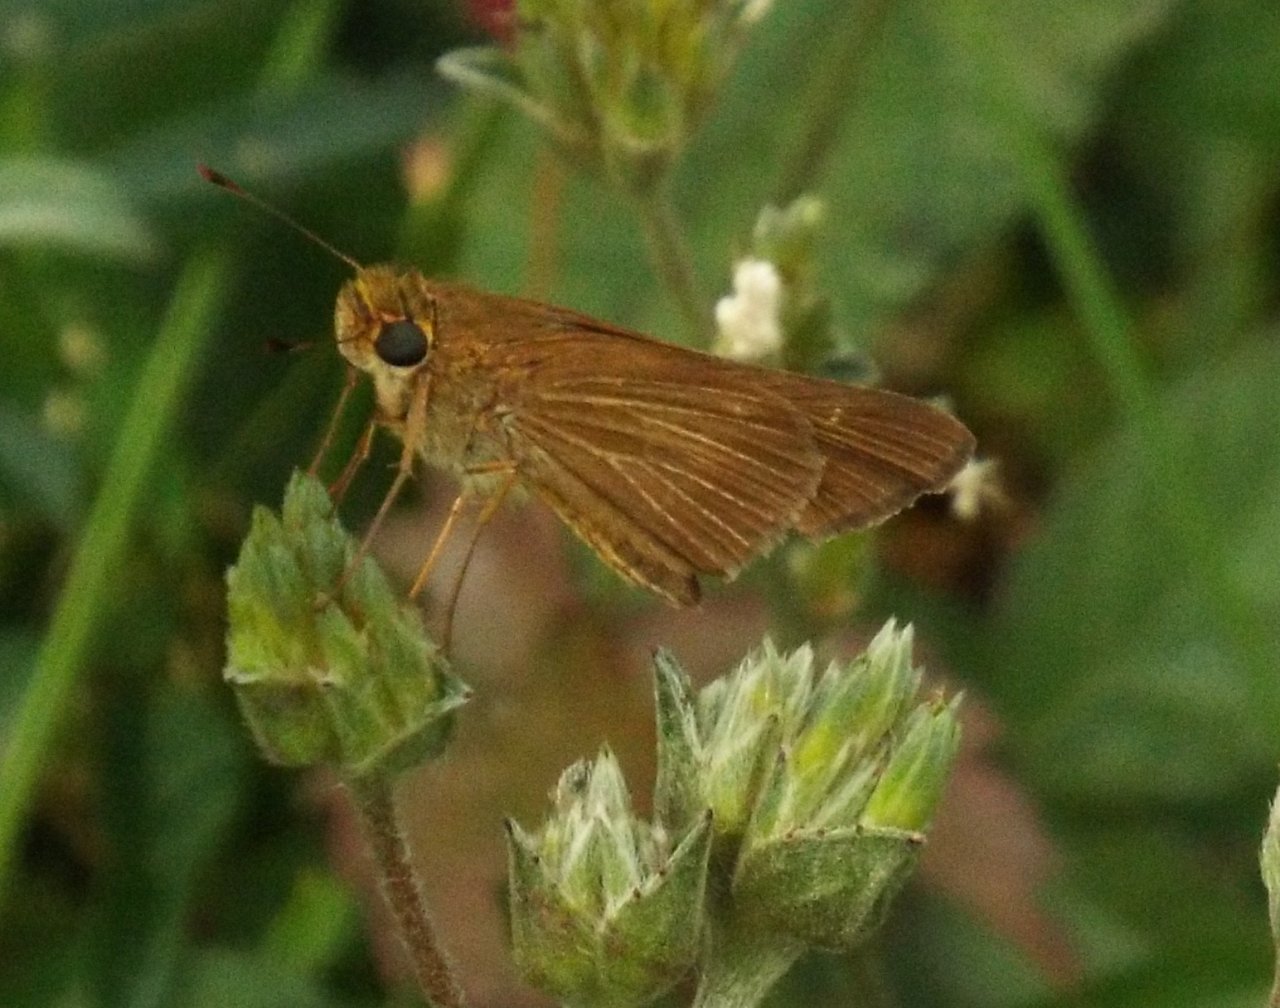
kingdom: Animalia
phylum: Arthropoda
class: Insecta
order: Lepidoptera
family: Hesperiidae
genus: Panoquina
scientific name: Panoquina ocola
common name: Ocola Skipper
